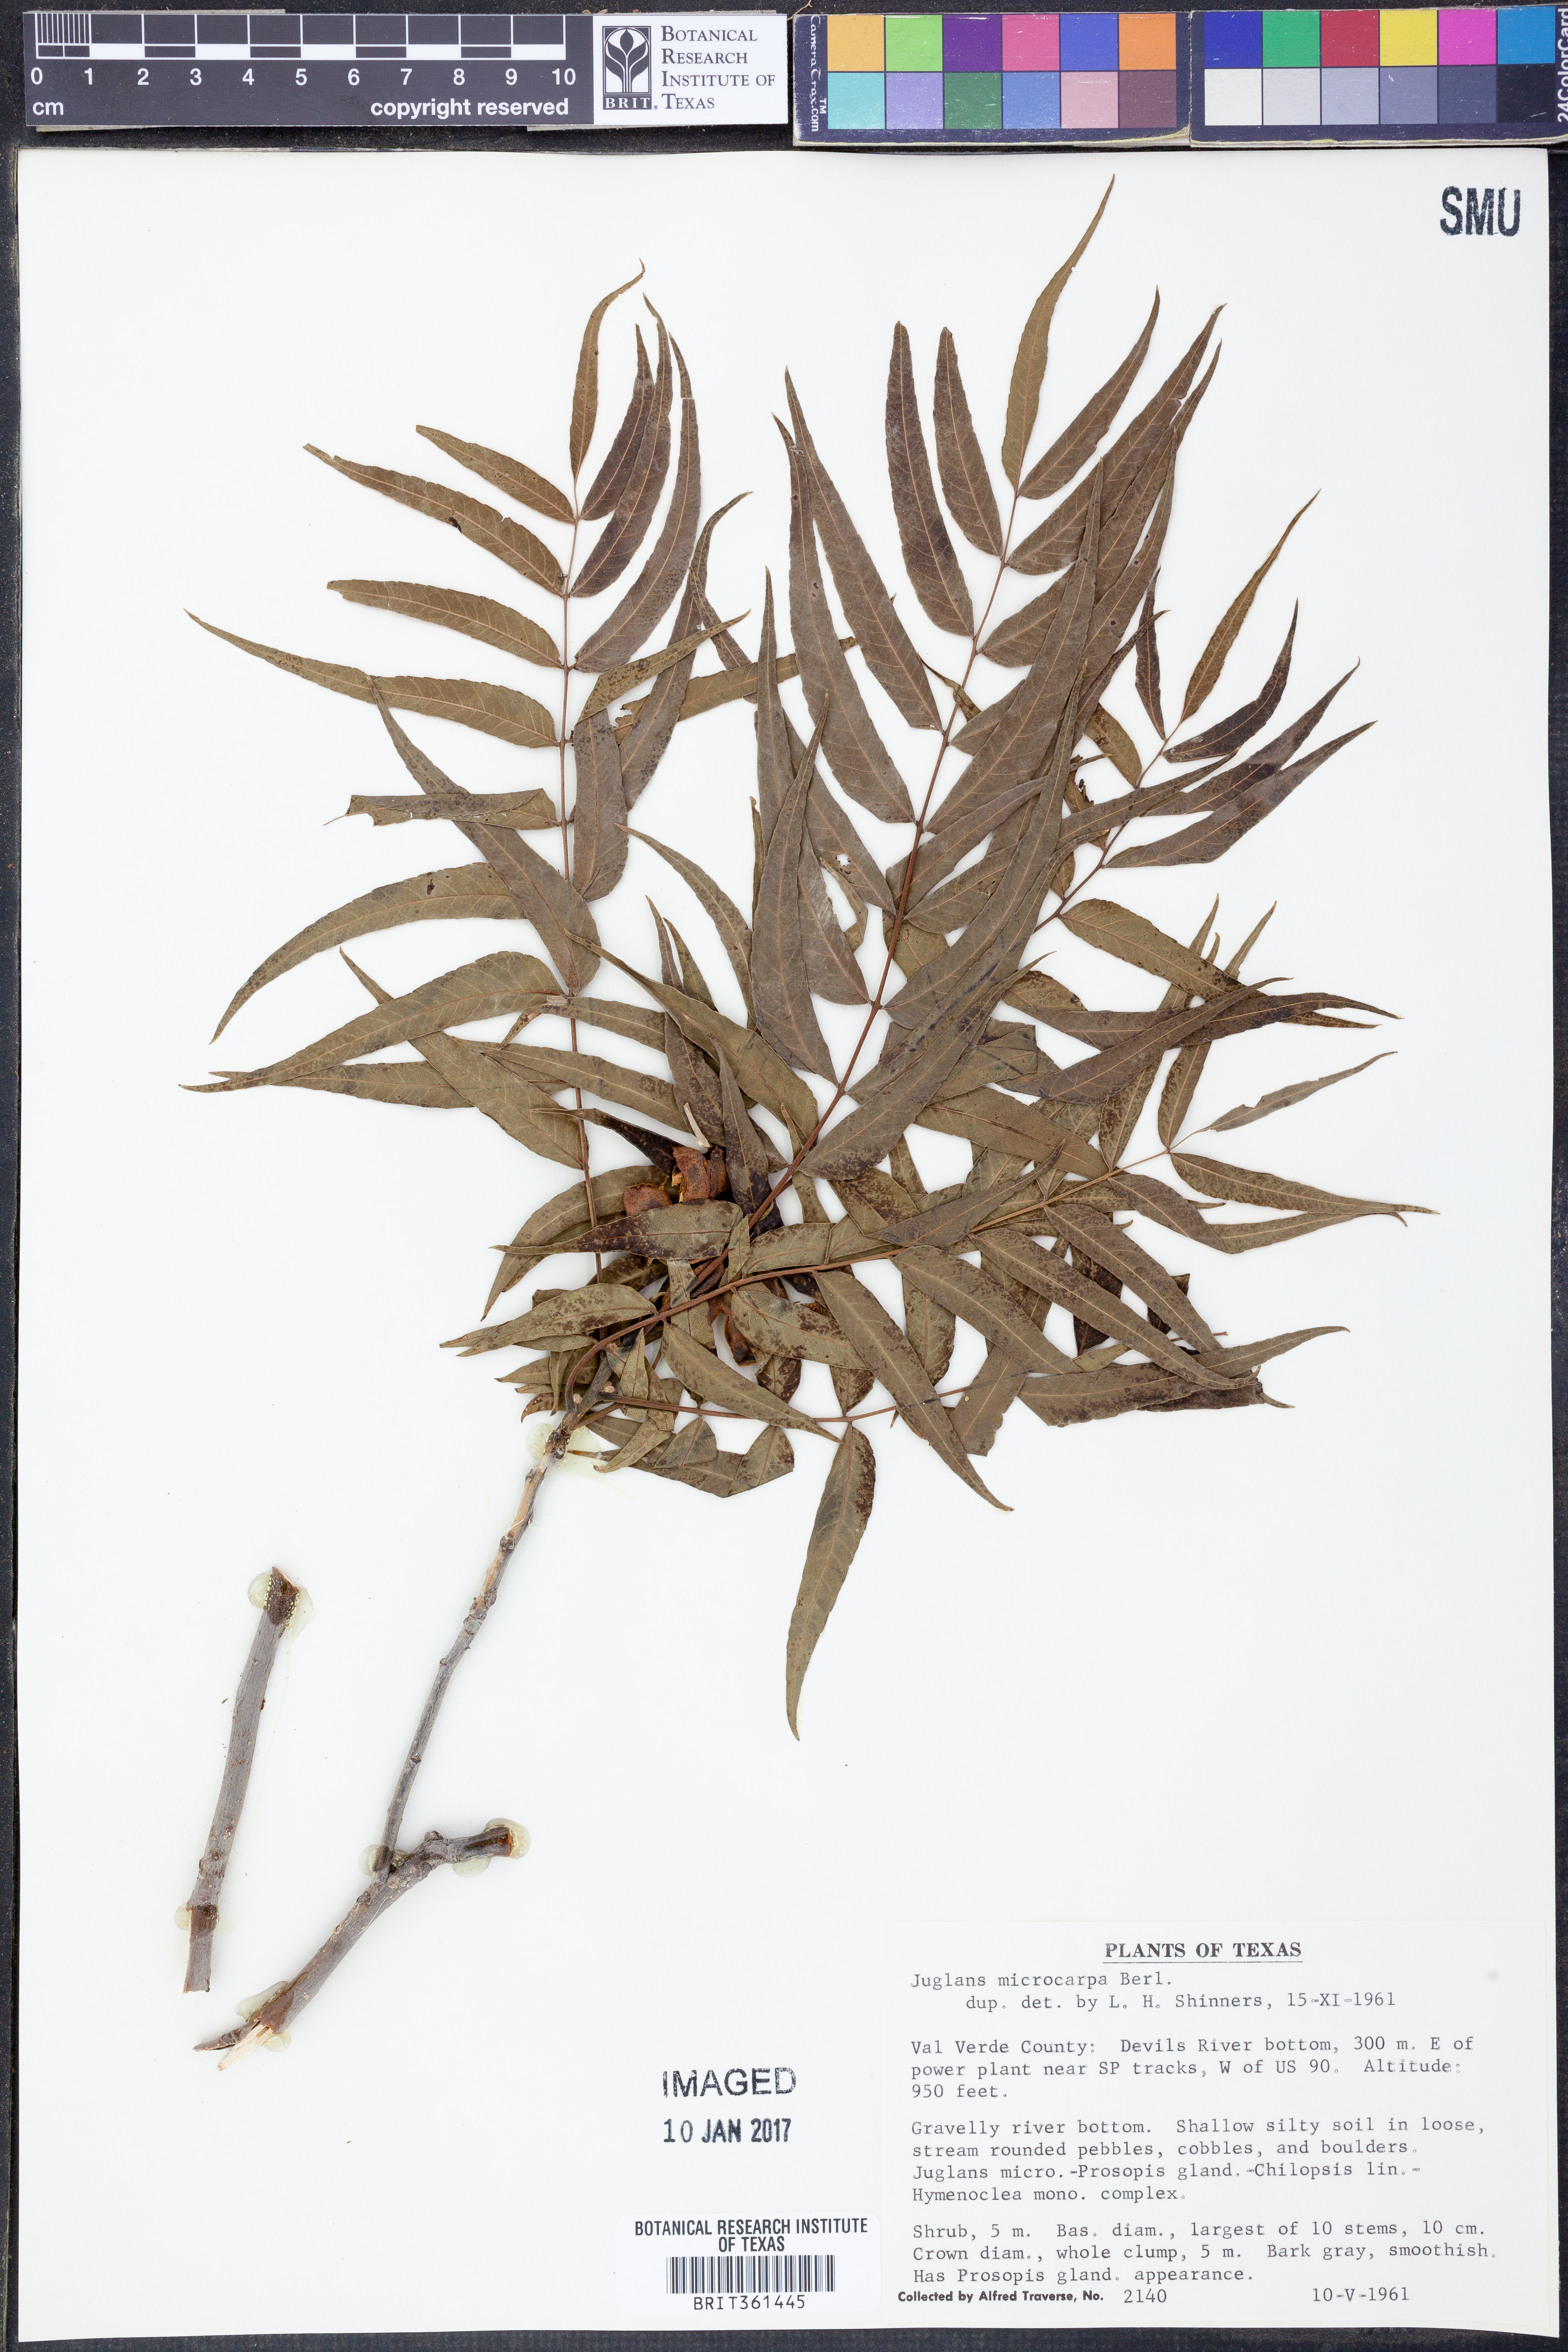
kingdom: Plantae
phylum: Tracheophyta
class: Magnoliopsida
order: Fagales
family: Juglandaceae
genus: Juglans
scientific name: Juglans microcarpa
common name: Texas walnut
